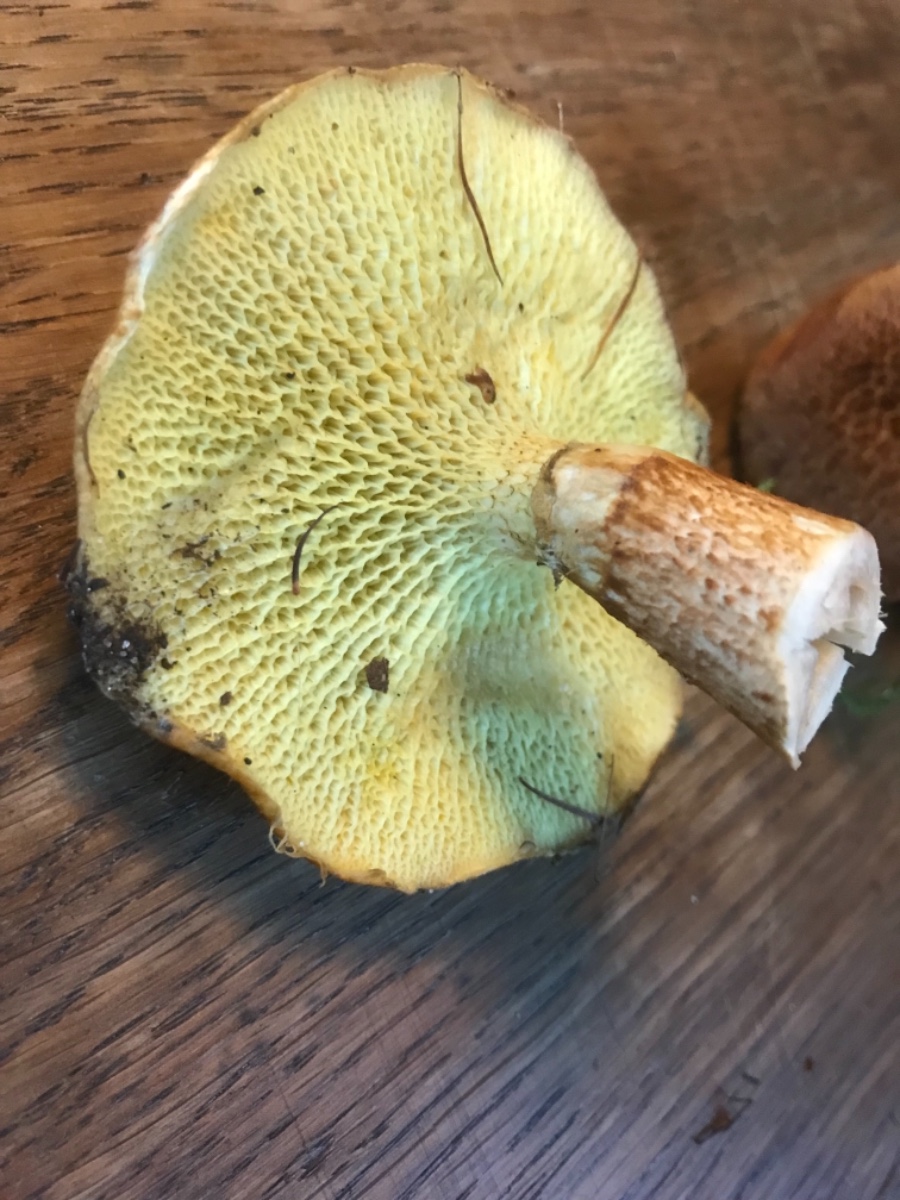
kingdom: Fungi
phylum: Basidiomycota
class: Agaricomycetes
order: Boletales
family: Suillaceae
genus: Suillus
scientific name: Suillus cavipes
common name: hulstokket slimrørhat
